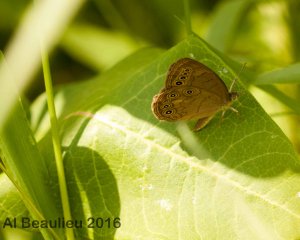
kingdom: Animalia
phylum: Arthropoda
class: Insecta
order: Lepidoptera
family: Nymphalidae
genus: Lethe
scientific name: Lethe eurydice
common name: Eyed Brown
